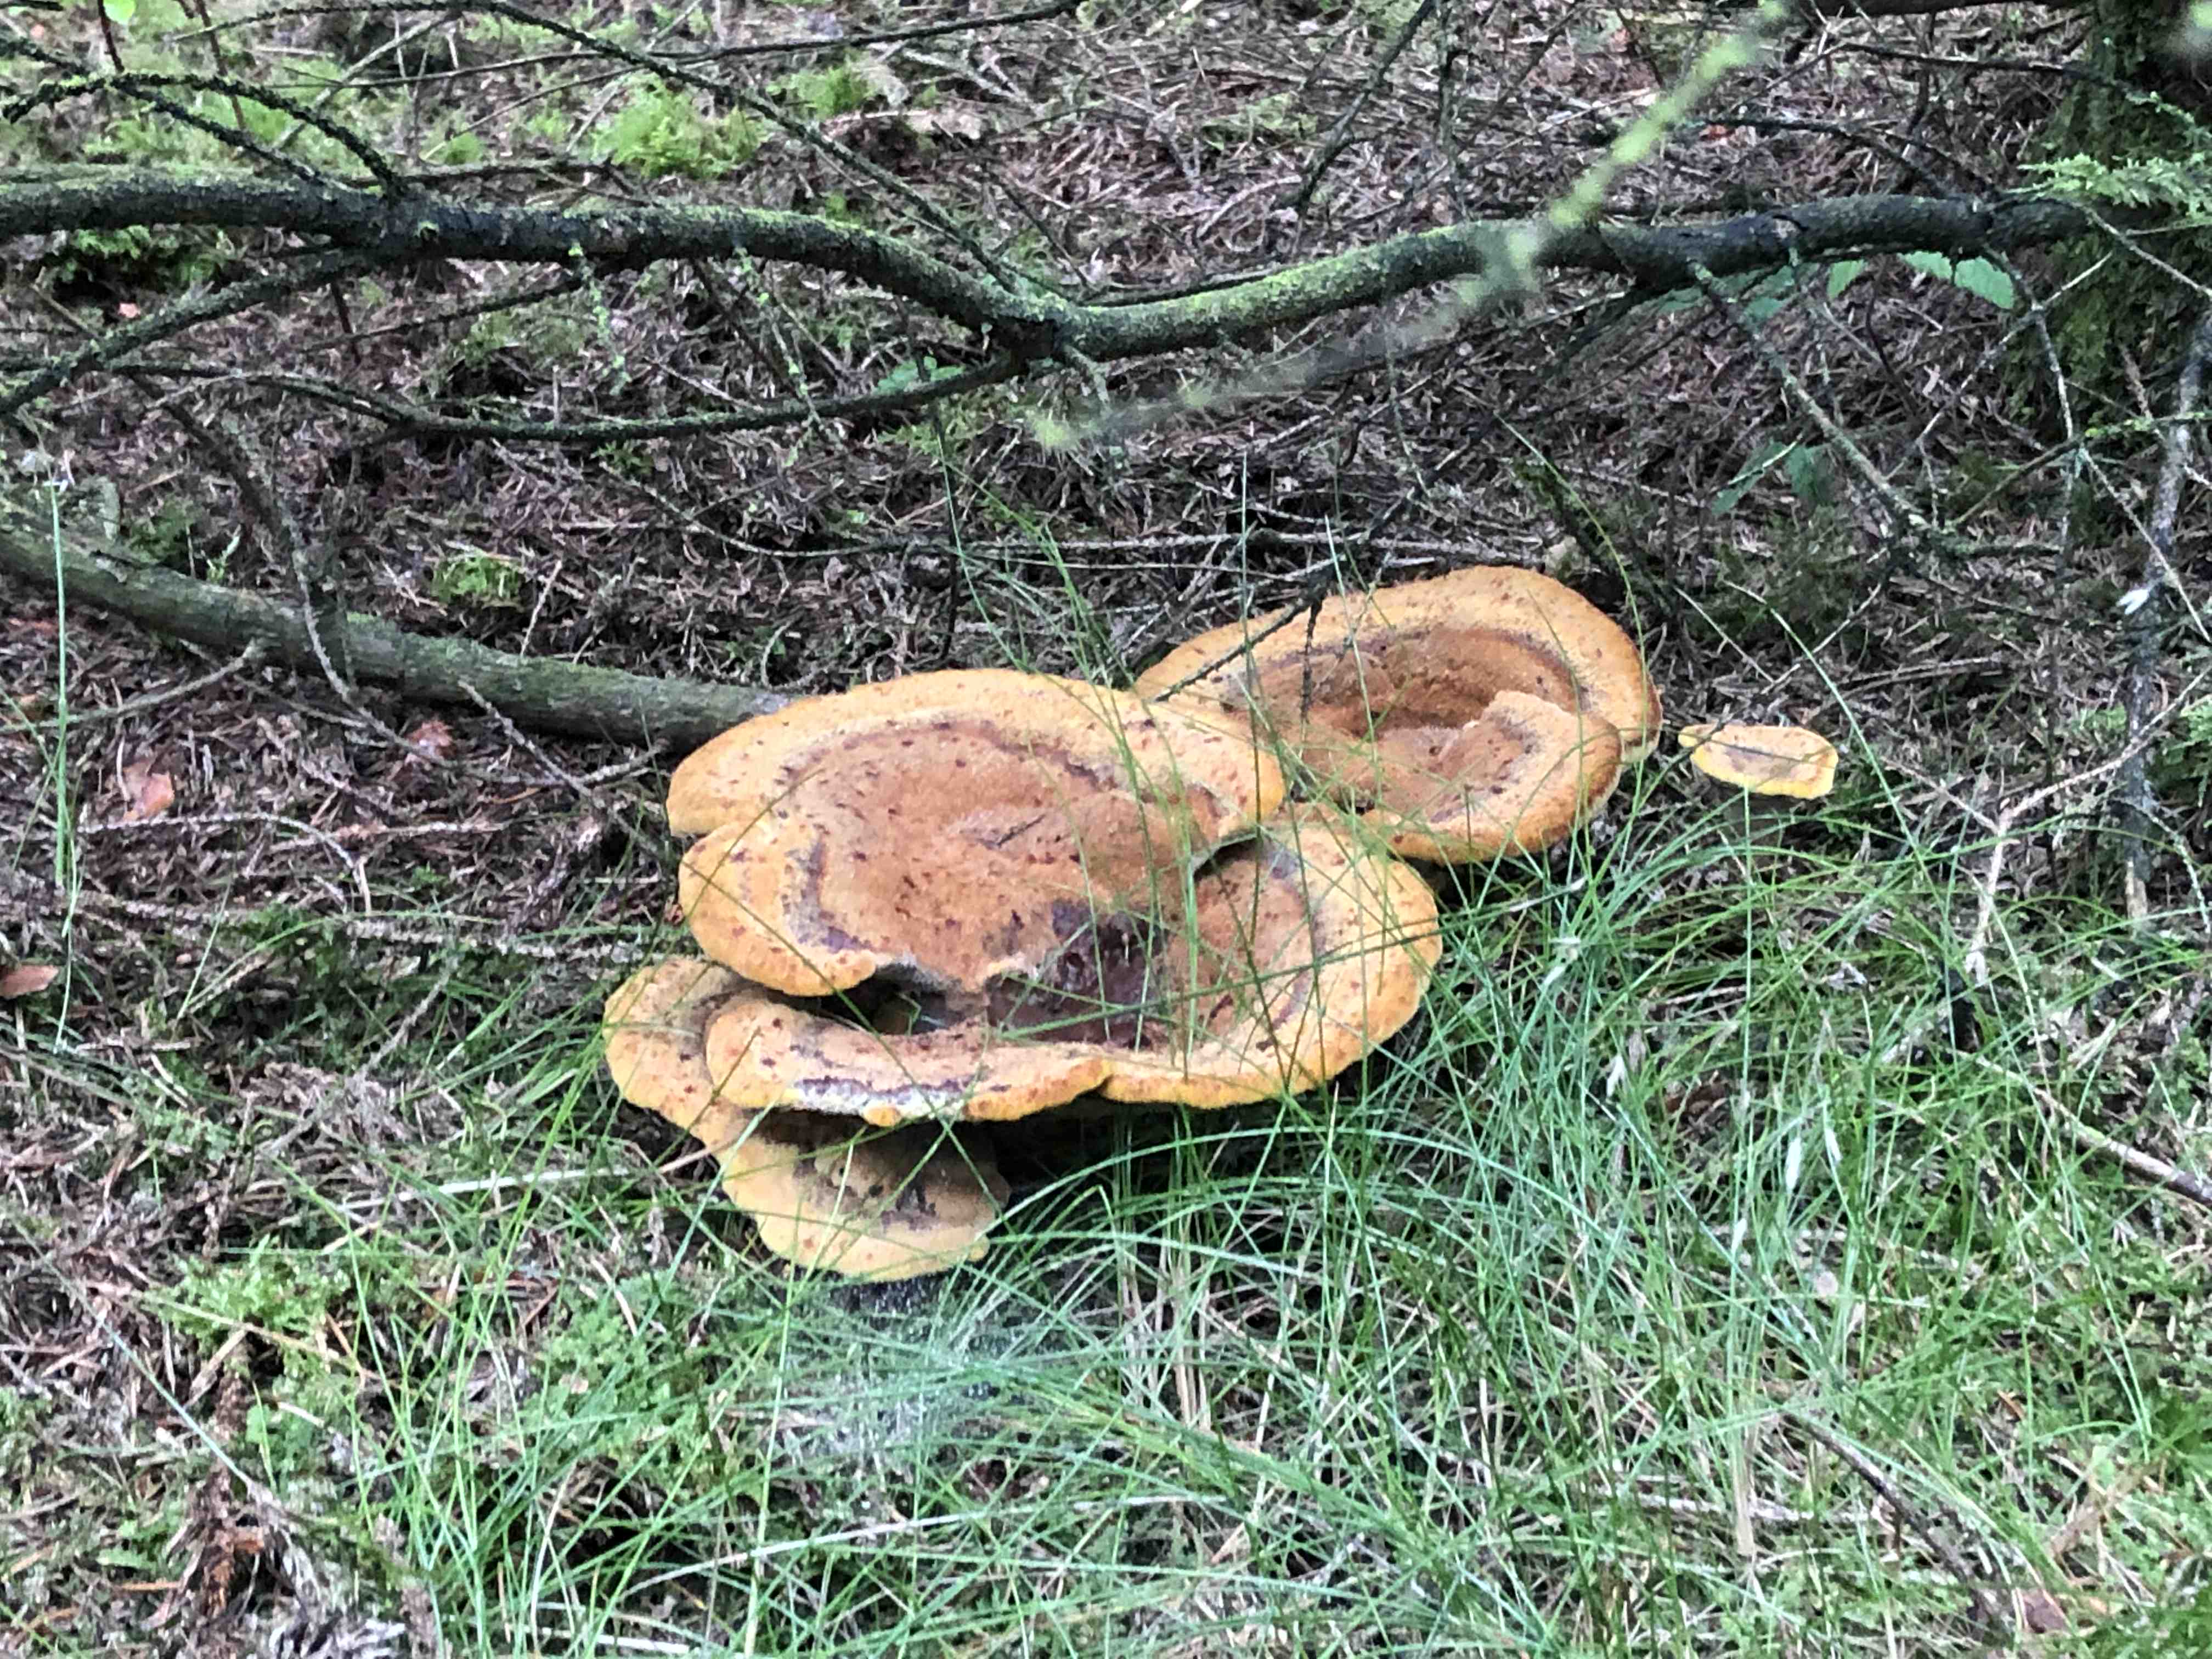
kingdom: Fungi
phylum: Basidiomycota
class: Agaricomycetes
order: Polyporales
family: Laetiporaceae
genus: Phaeolus
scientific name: Phaeolus schweinitzii
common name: brunporesvamp
